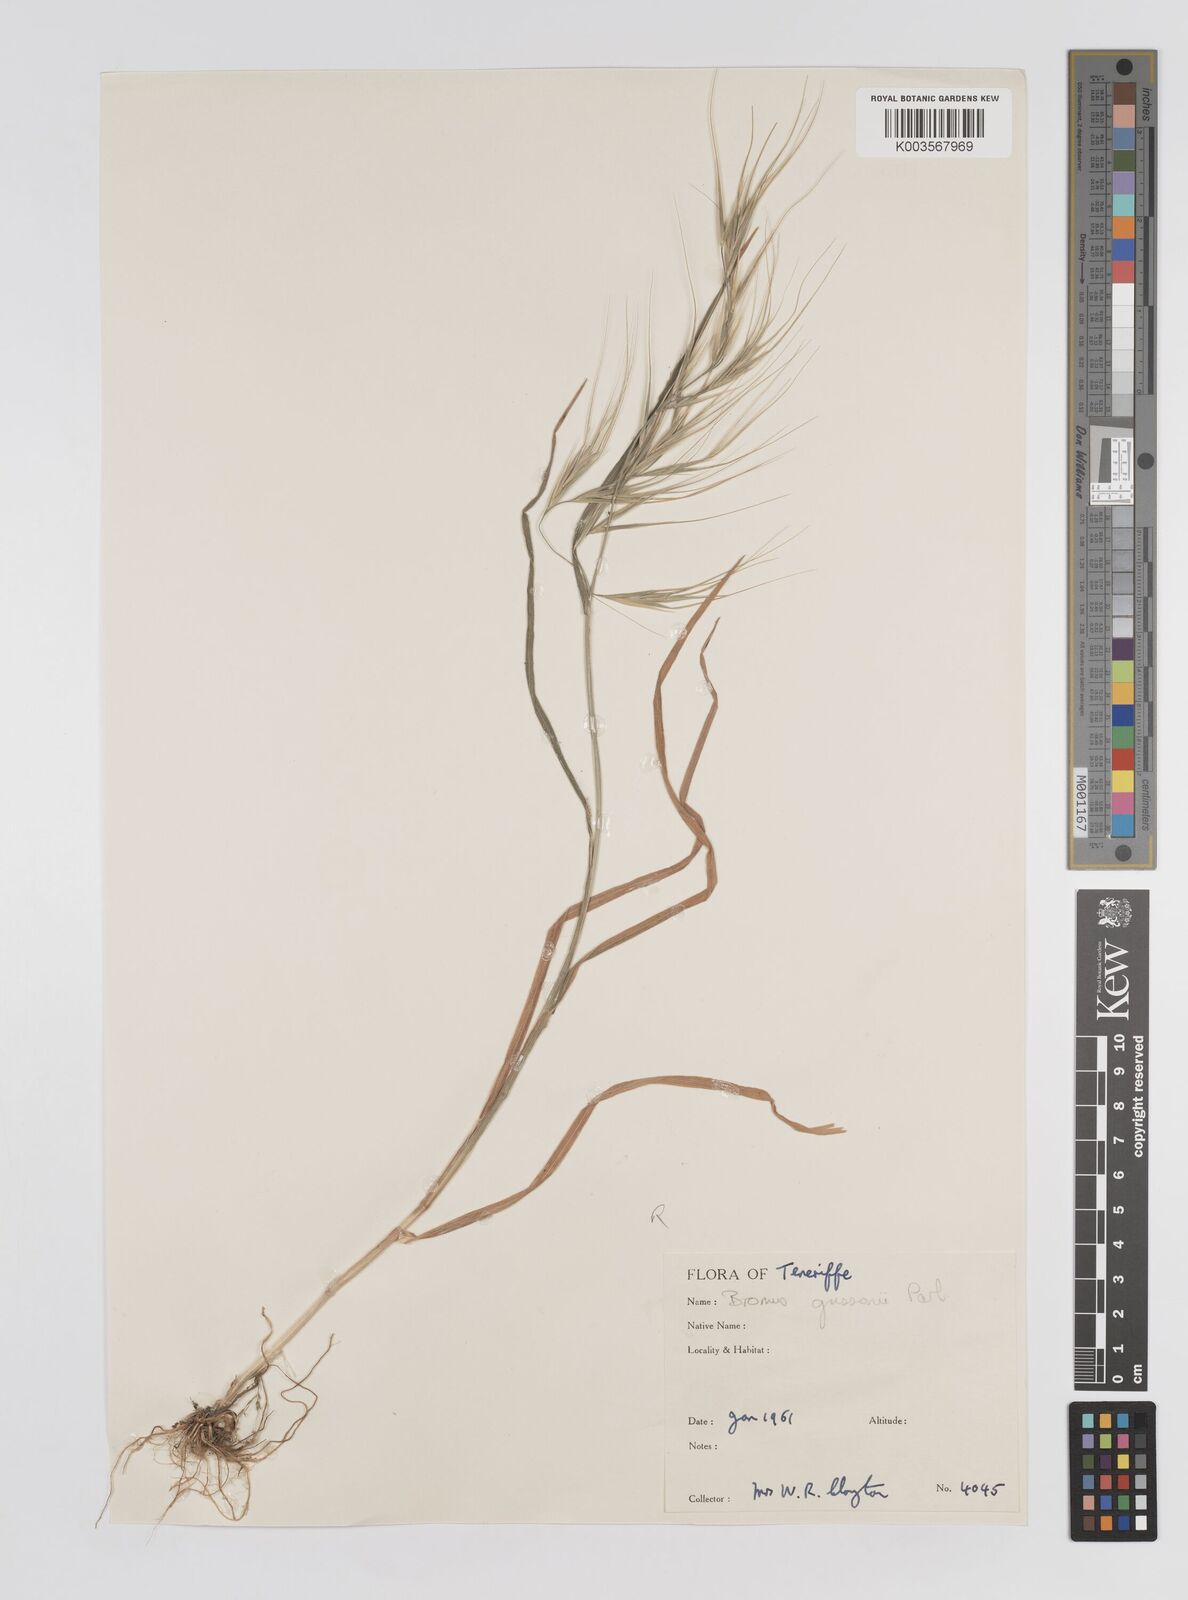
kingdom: Plantae
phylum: Tracheophyta
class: Liliopsida
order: Poales
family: Poaceae
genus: Bromus
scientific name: Bromus rigidus
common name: Ripgut brome
